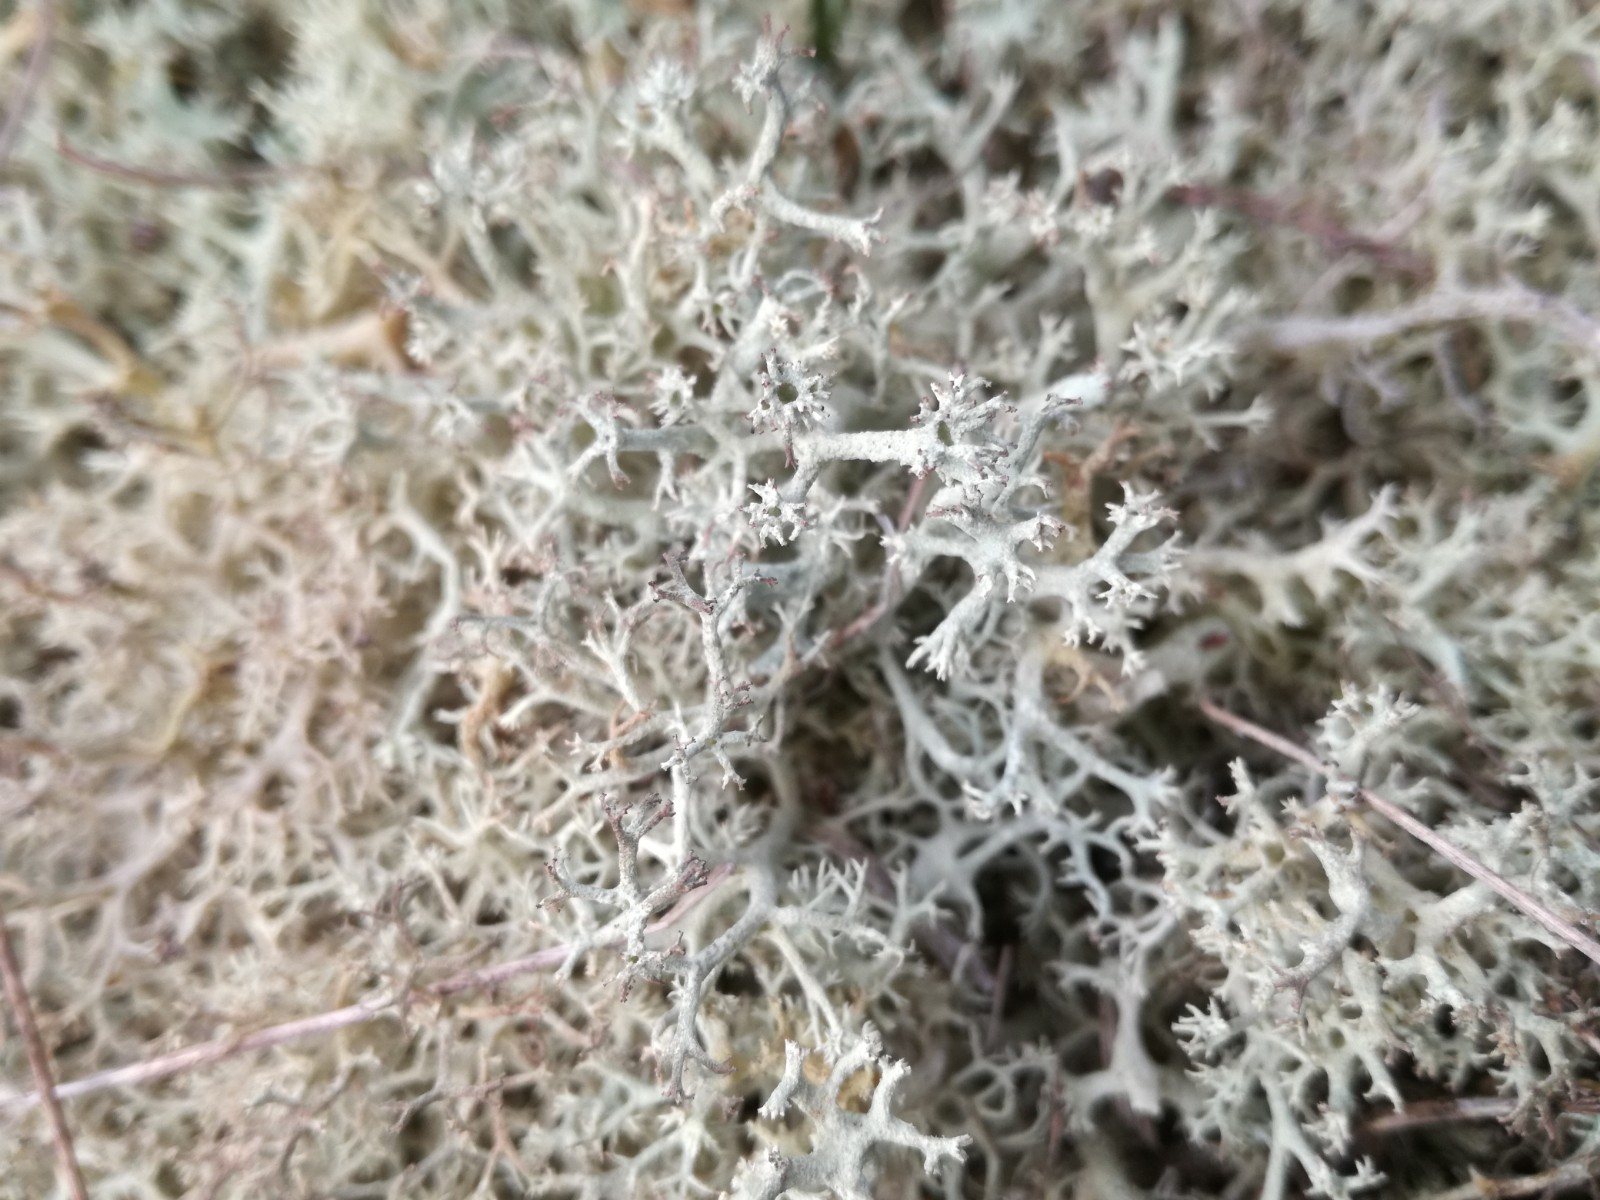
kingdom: Fungi
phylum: Ascomycota
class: Lecanoromycetes
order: Lecanorales
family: Cladoniaceae
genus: Cladonia
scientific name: Cladonia portentosa
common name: hede-rensdyrlav
